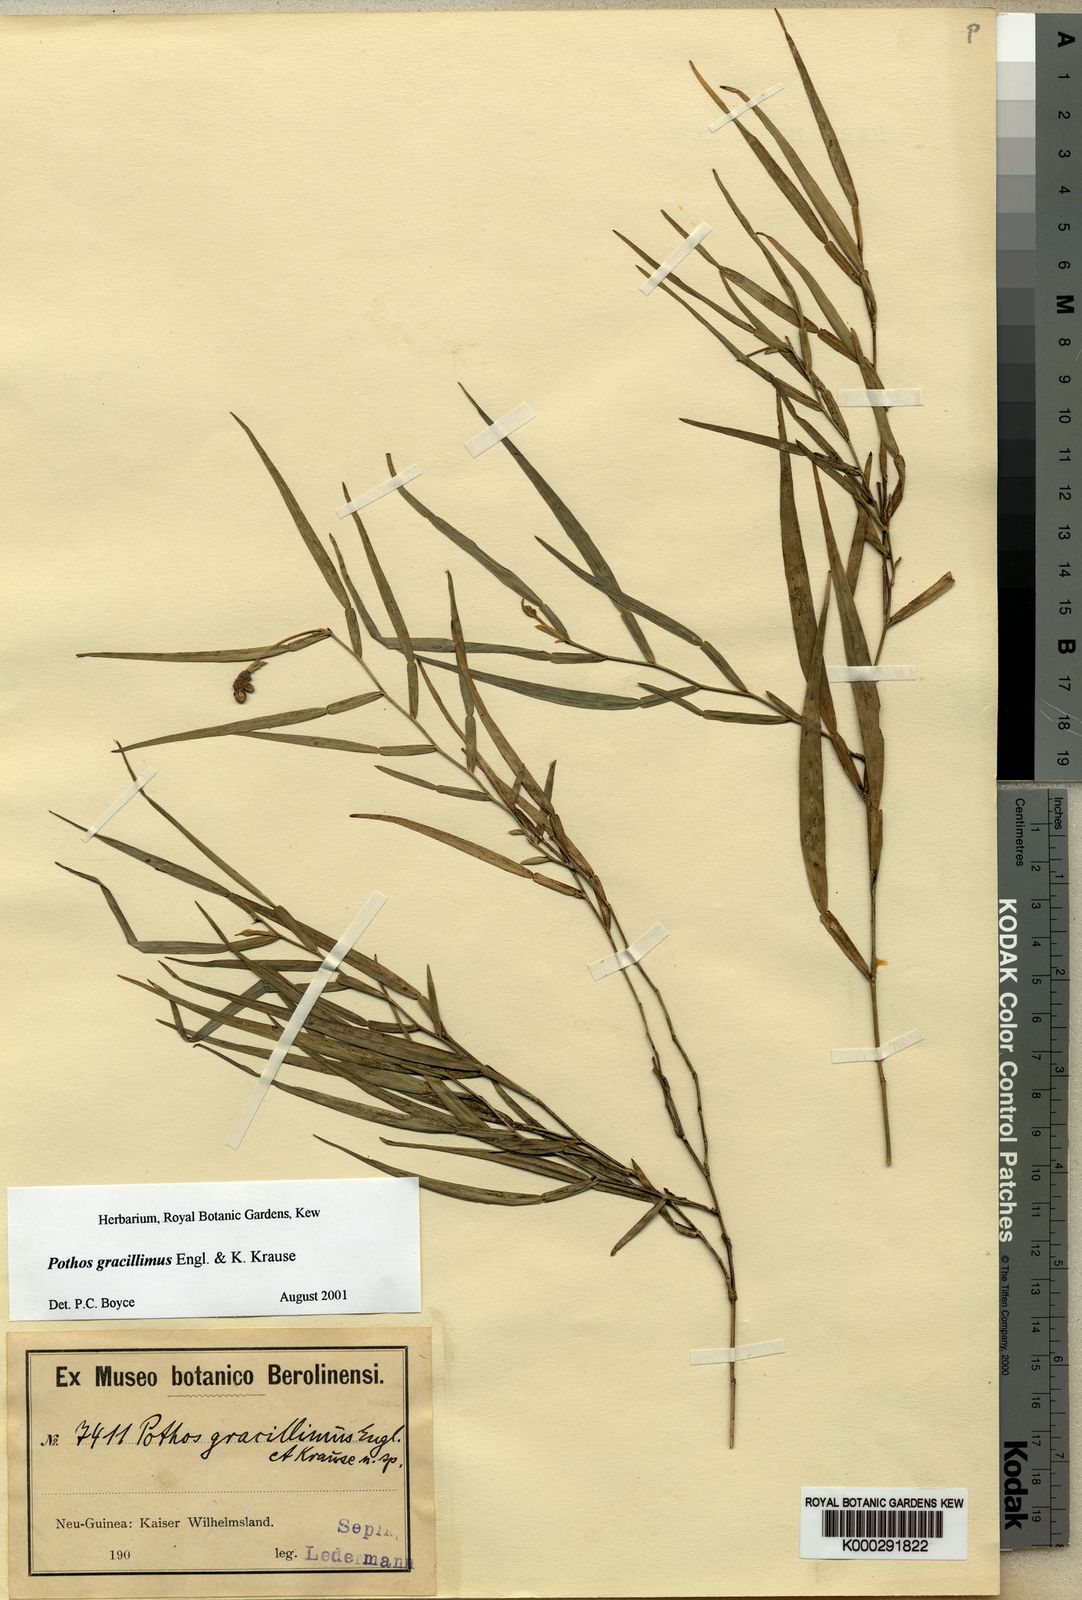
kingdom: Plantae
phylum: Tracheophyta
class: Liliopsida
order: Alismatales
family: Araceae
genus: Pothos
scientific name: Pothos gracillimus
